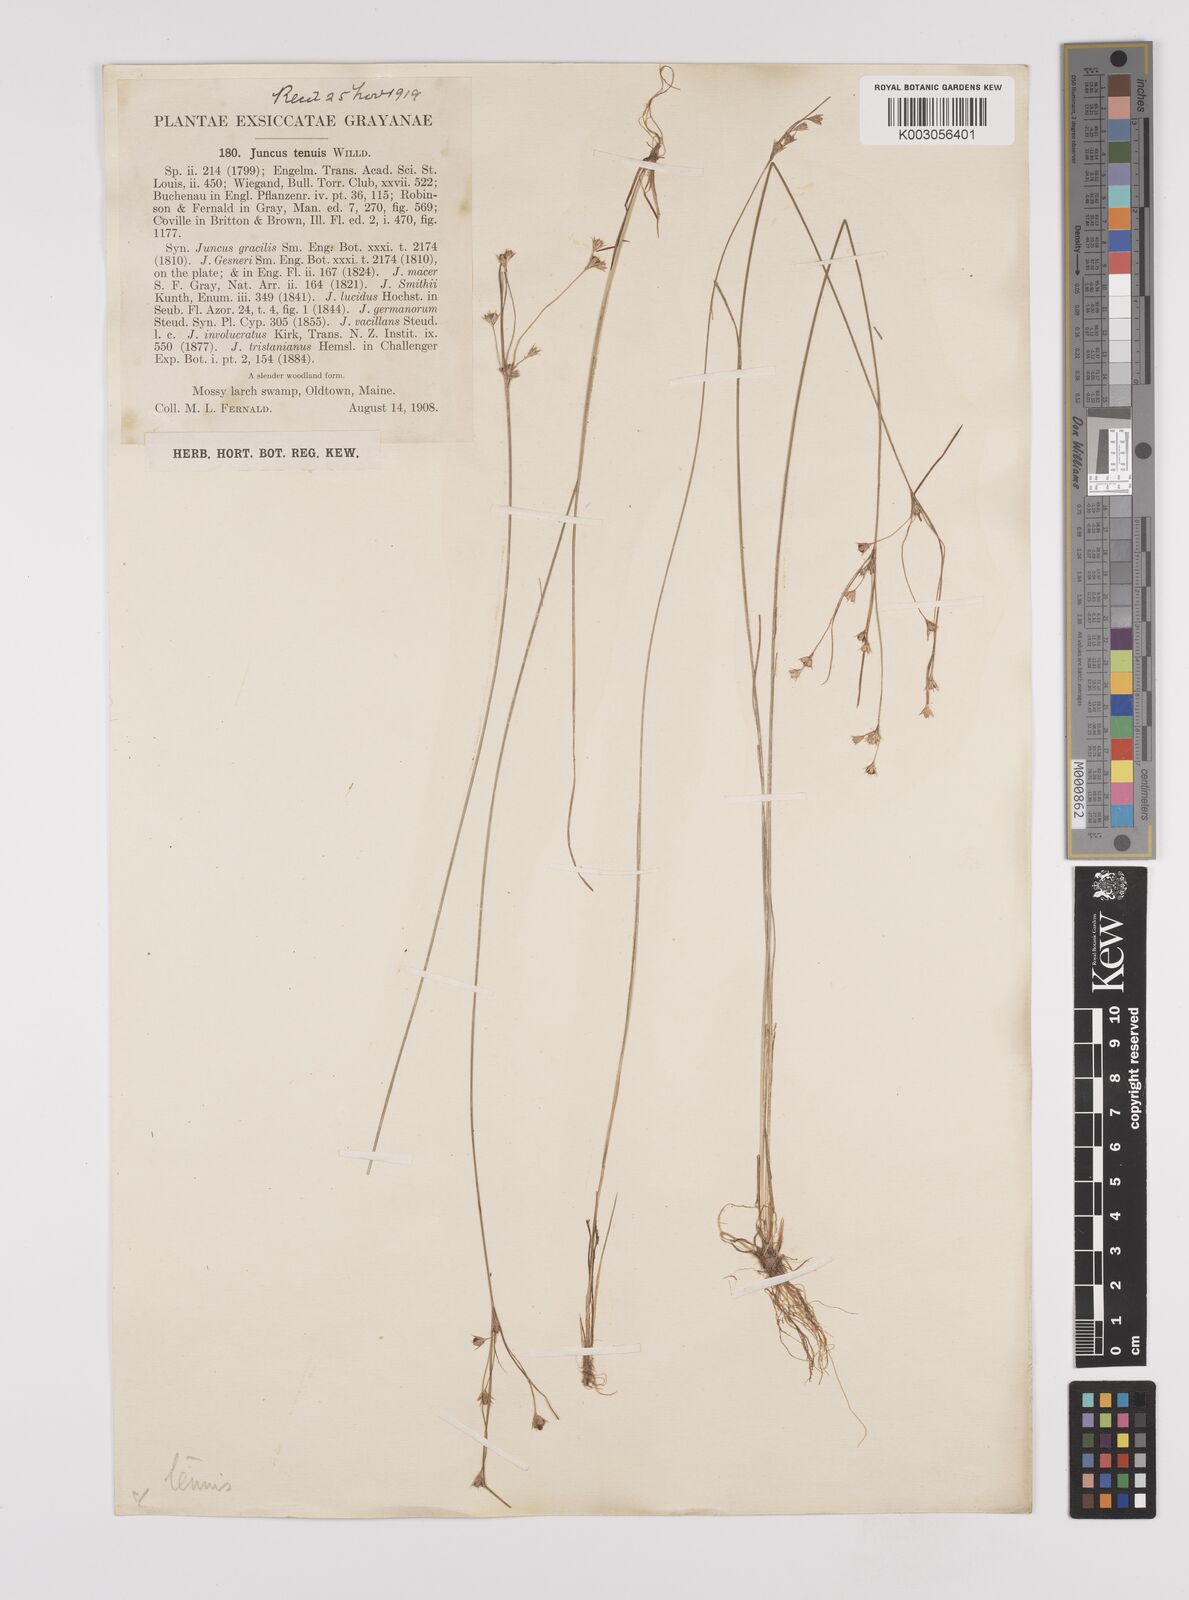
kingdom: Plantae
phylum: Tracheophyta
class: Liliopsida
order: Poales
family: Juncaceae
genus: Juncus
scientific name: Juncus tenuis
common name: Slender rush
